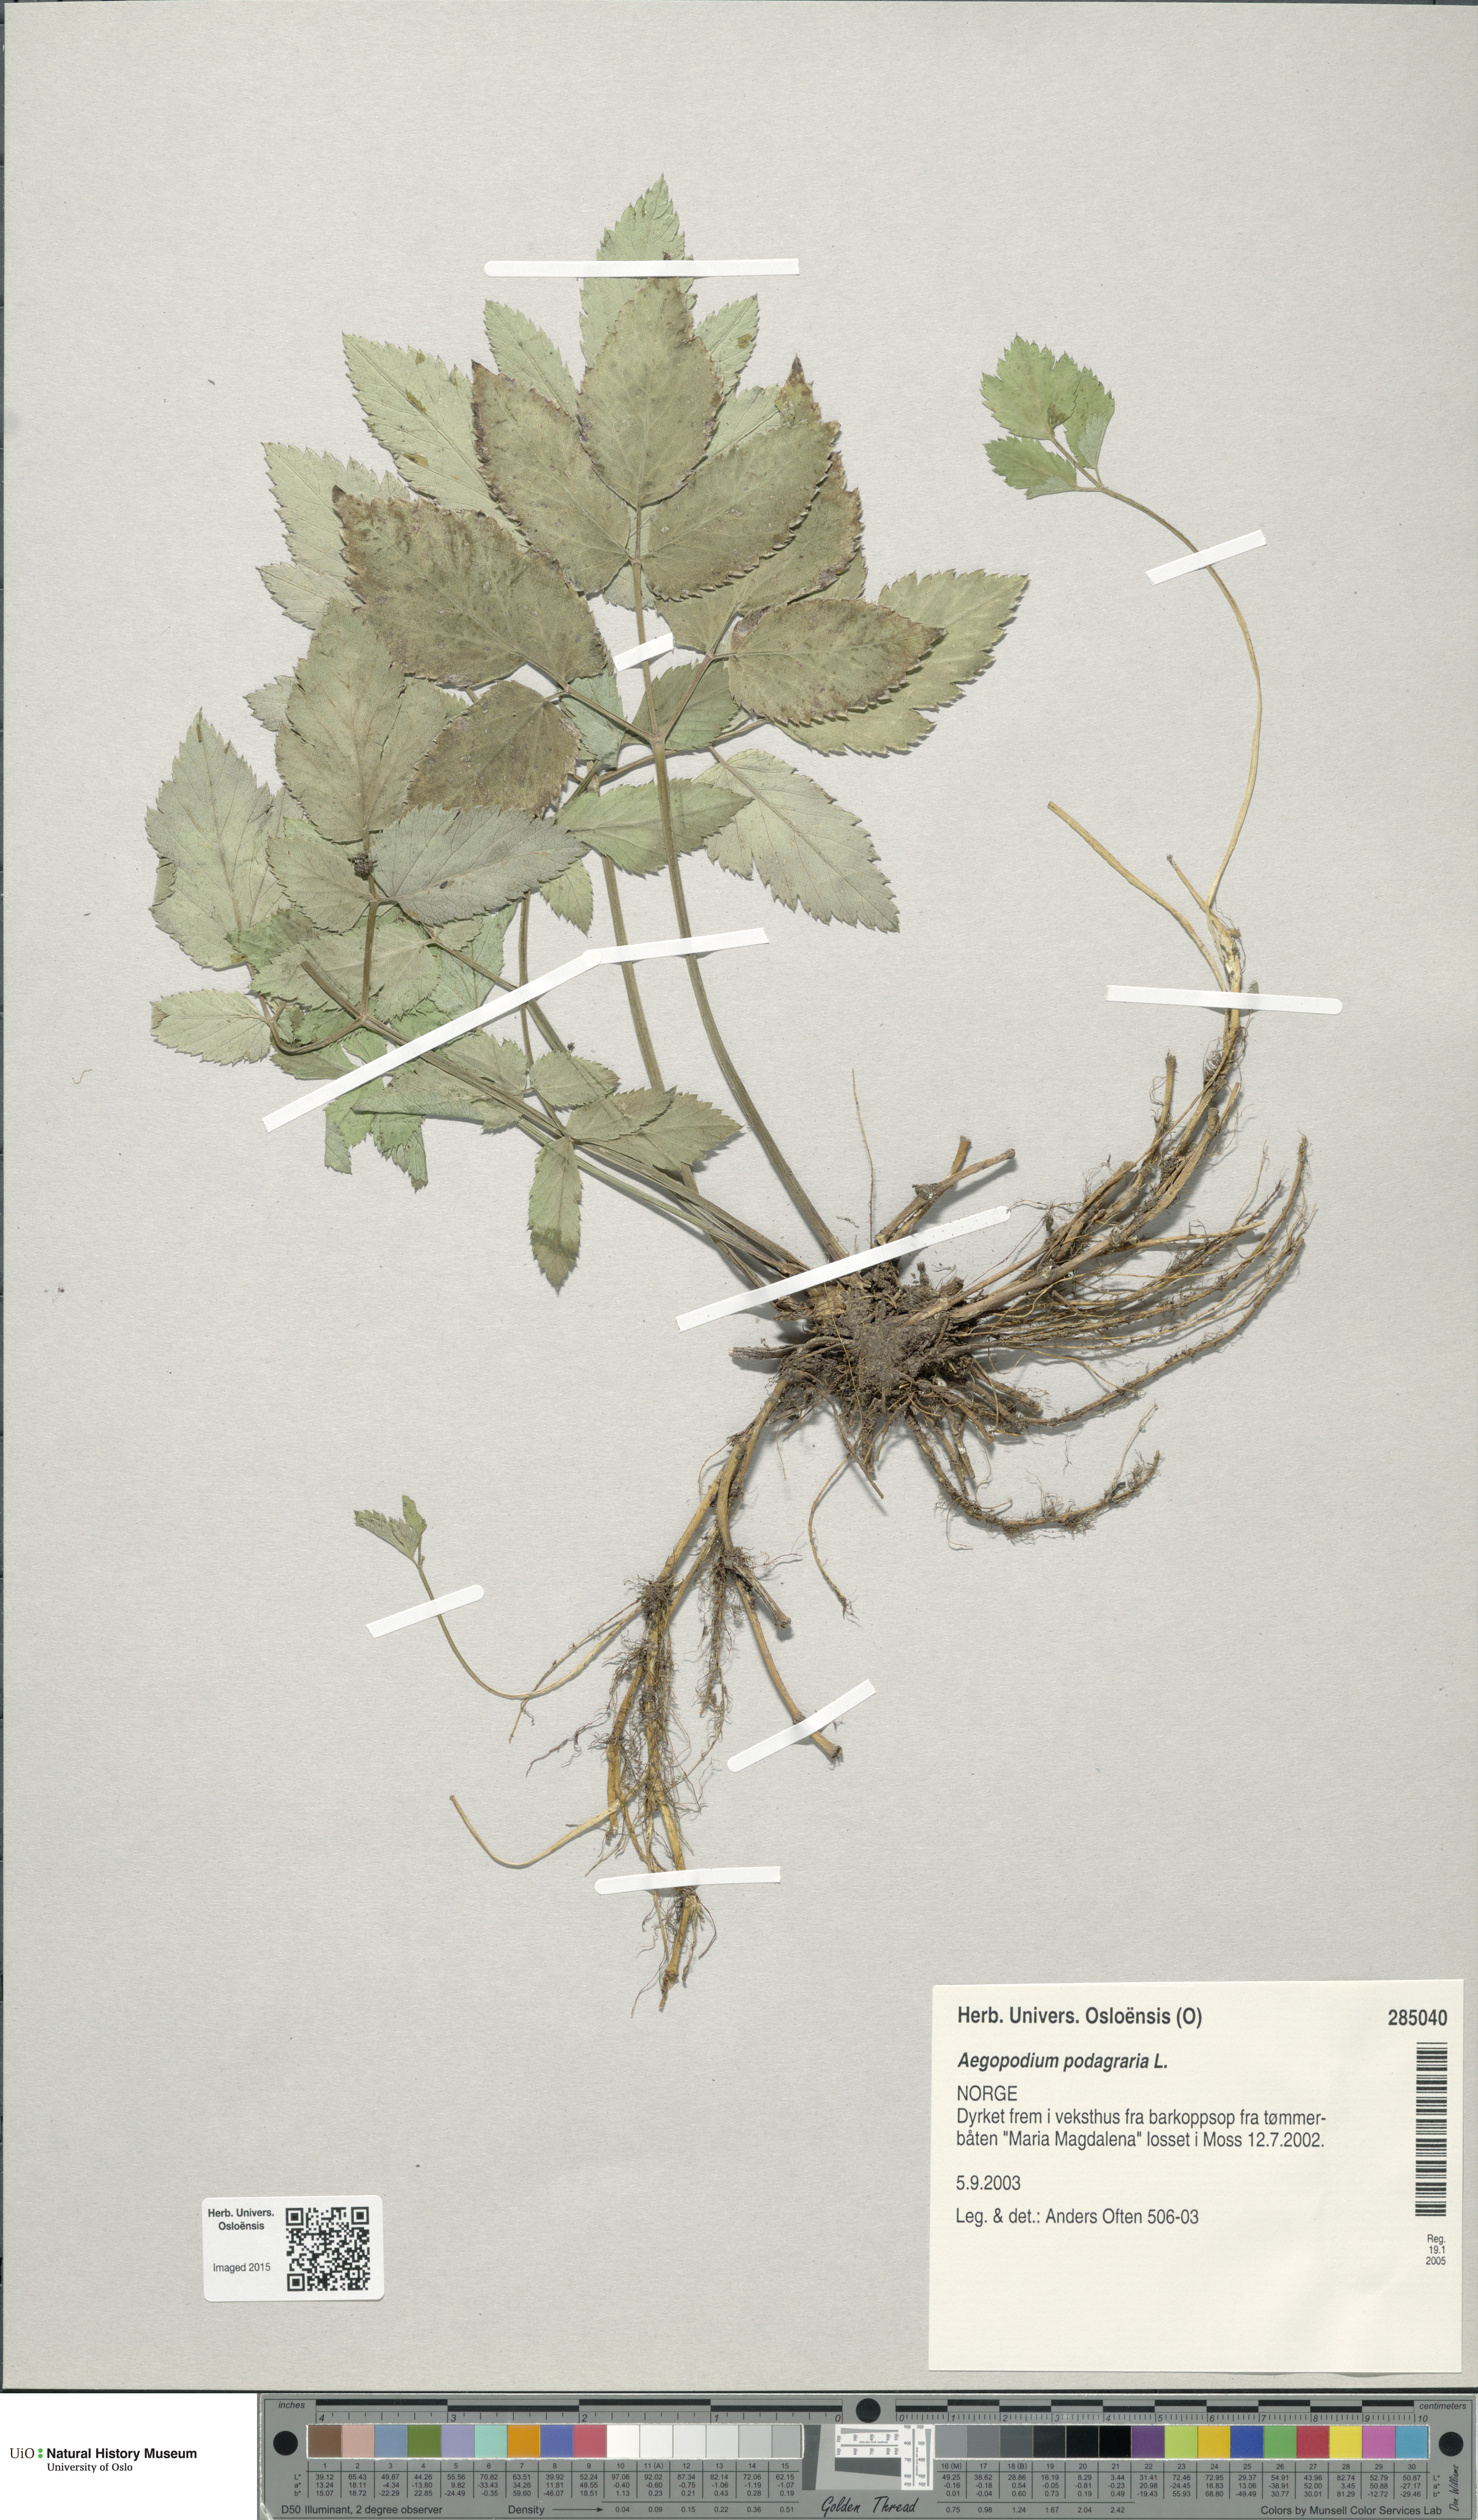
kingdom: Plantae
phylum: Tracheophyta
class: Magnoliopsida
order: Apiales
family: Apiaceae
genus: Aegopodium
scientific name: Aegopodium podagraria
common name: Ground-elder
